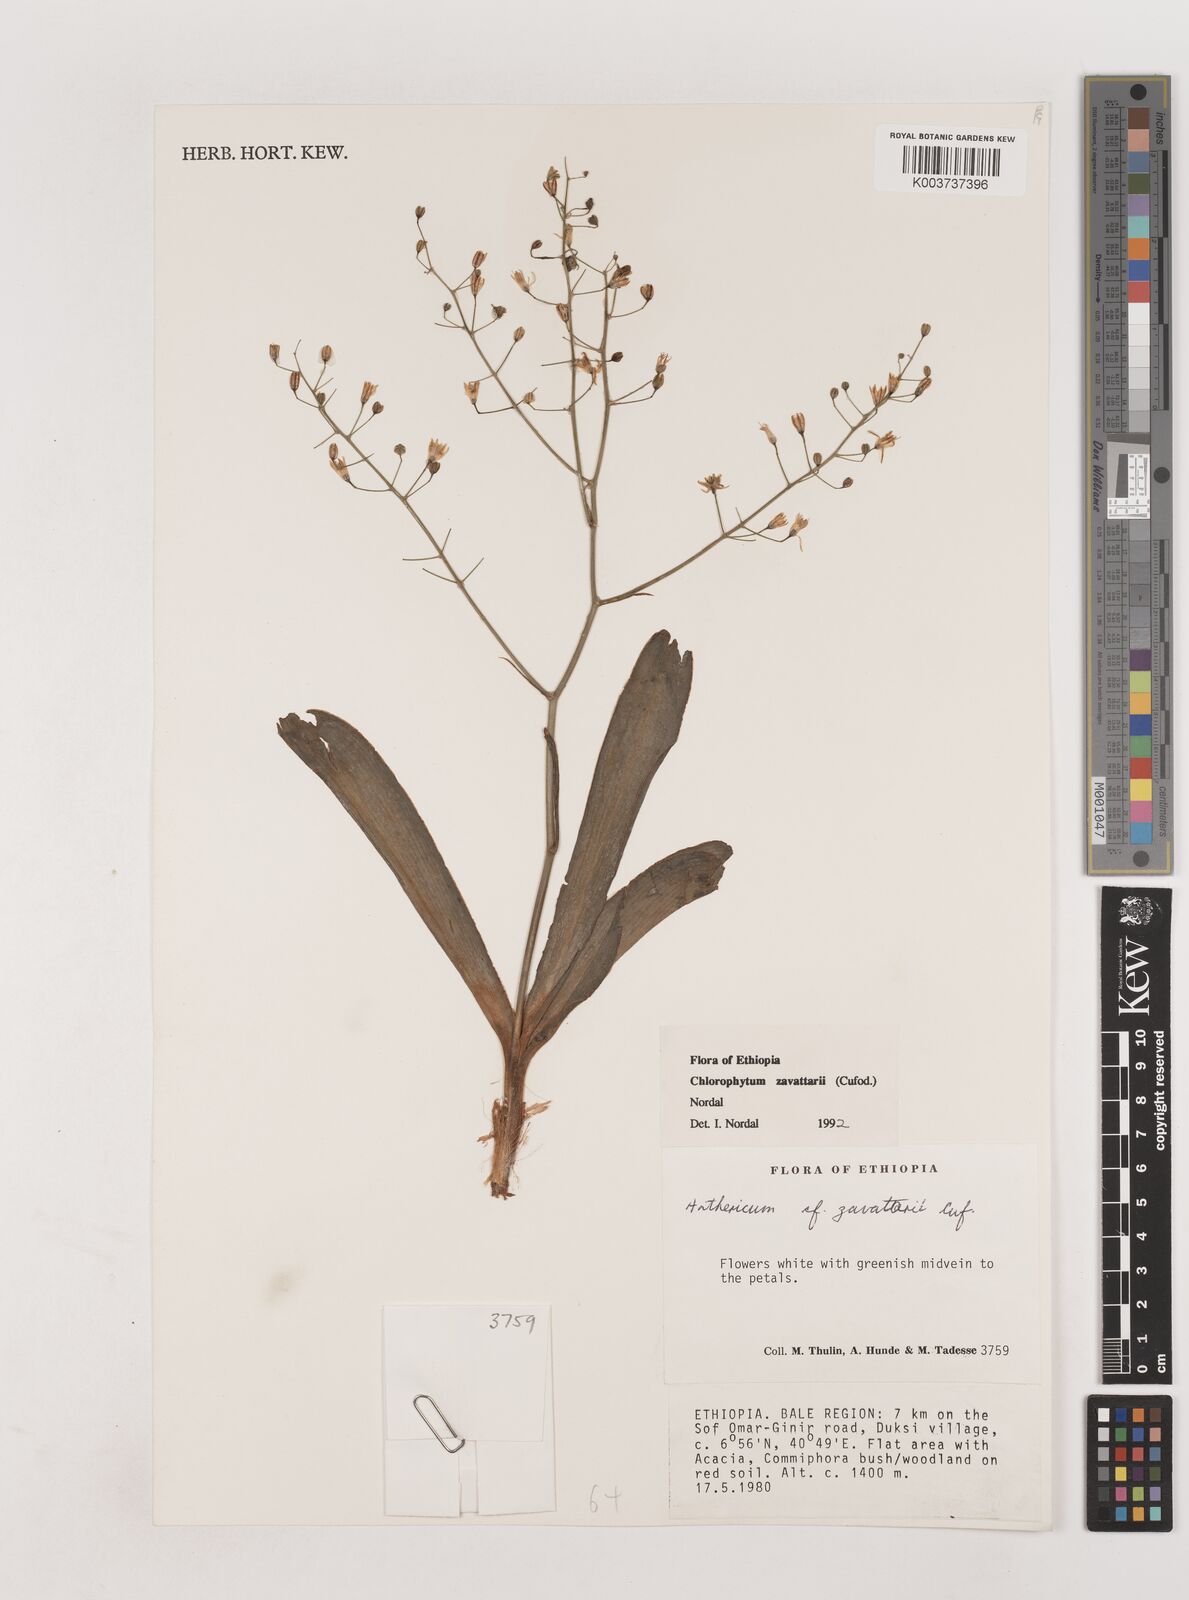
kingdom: Plantae
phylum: Tracheophyta
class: Liliopsida
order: Asparagales
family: Asparagaceae
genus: Chlorophytum
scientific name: Chlorophytum zavattarii
